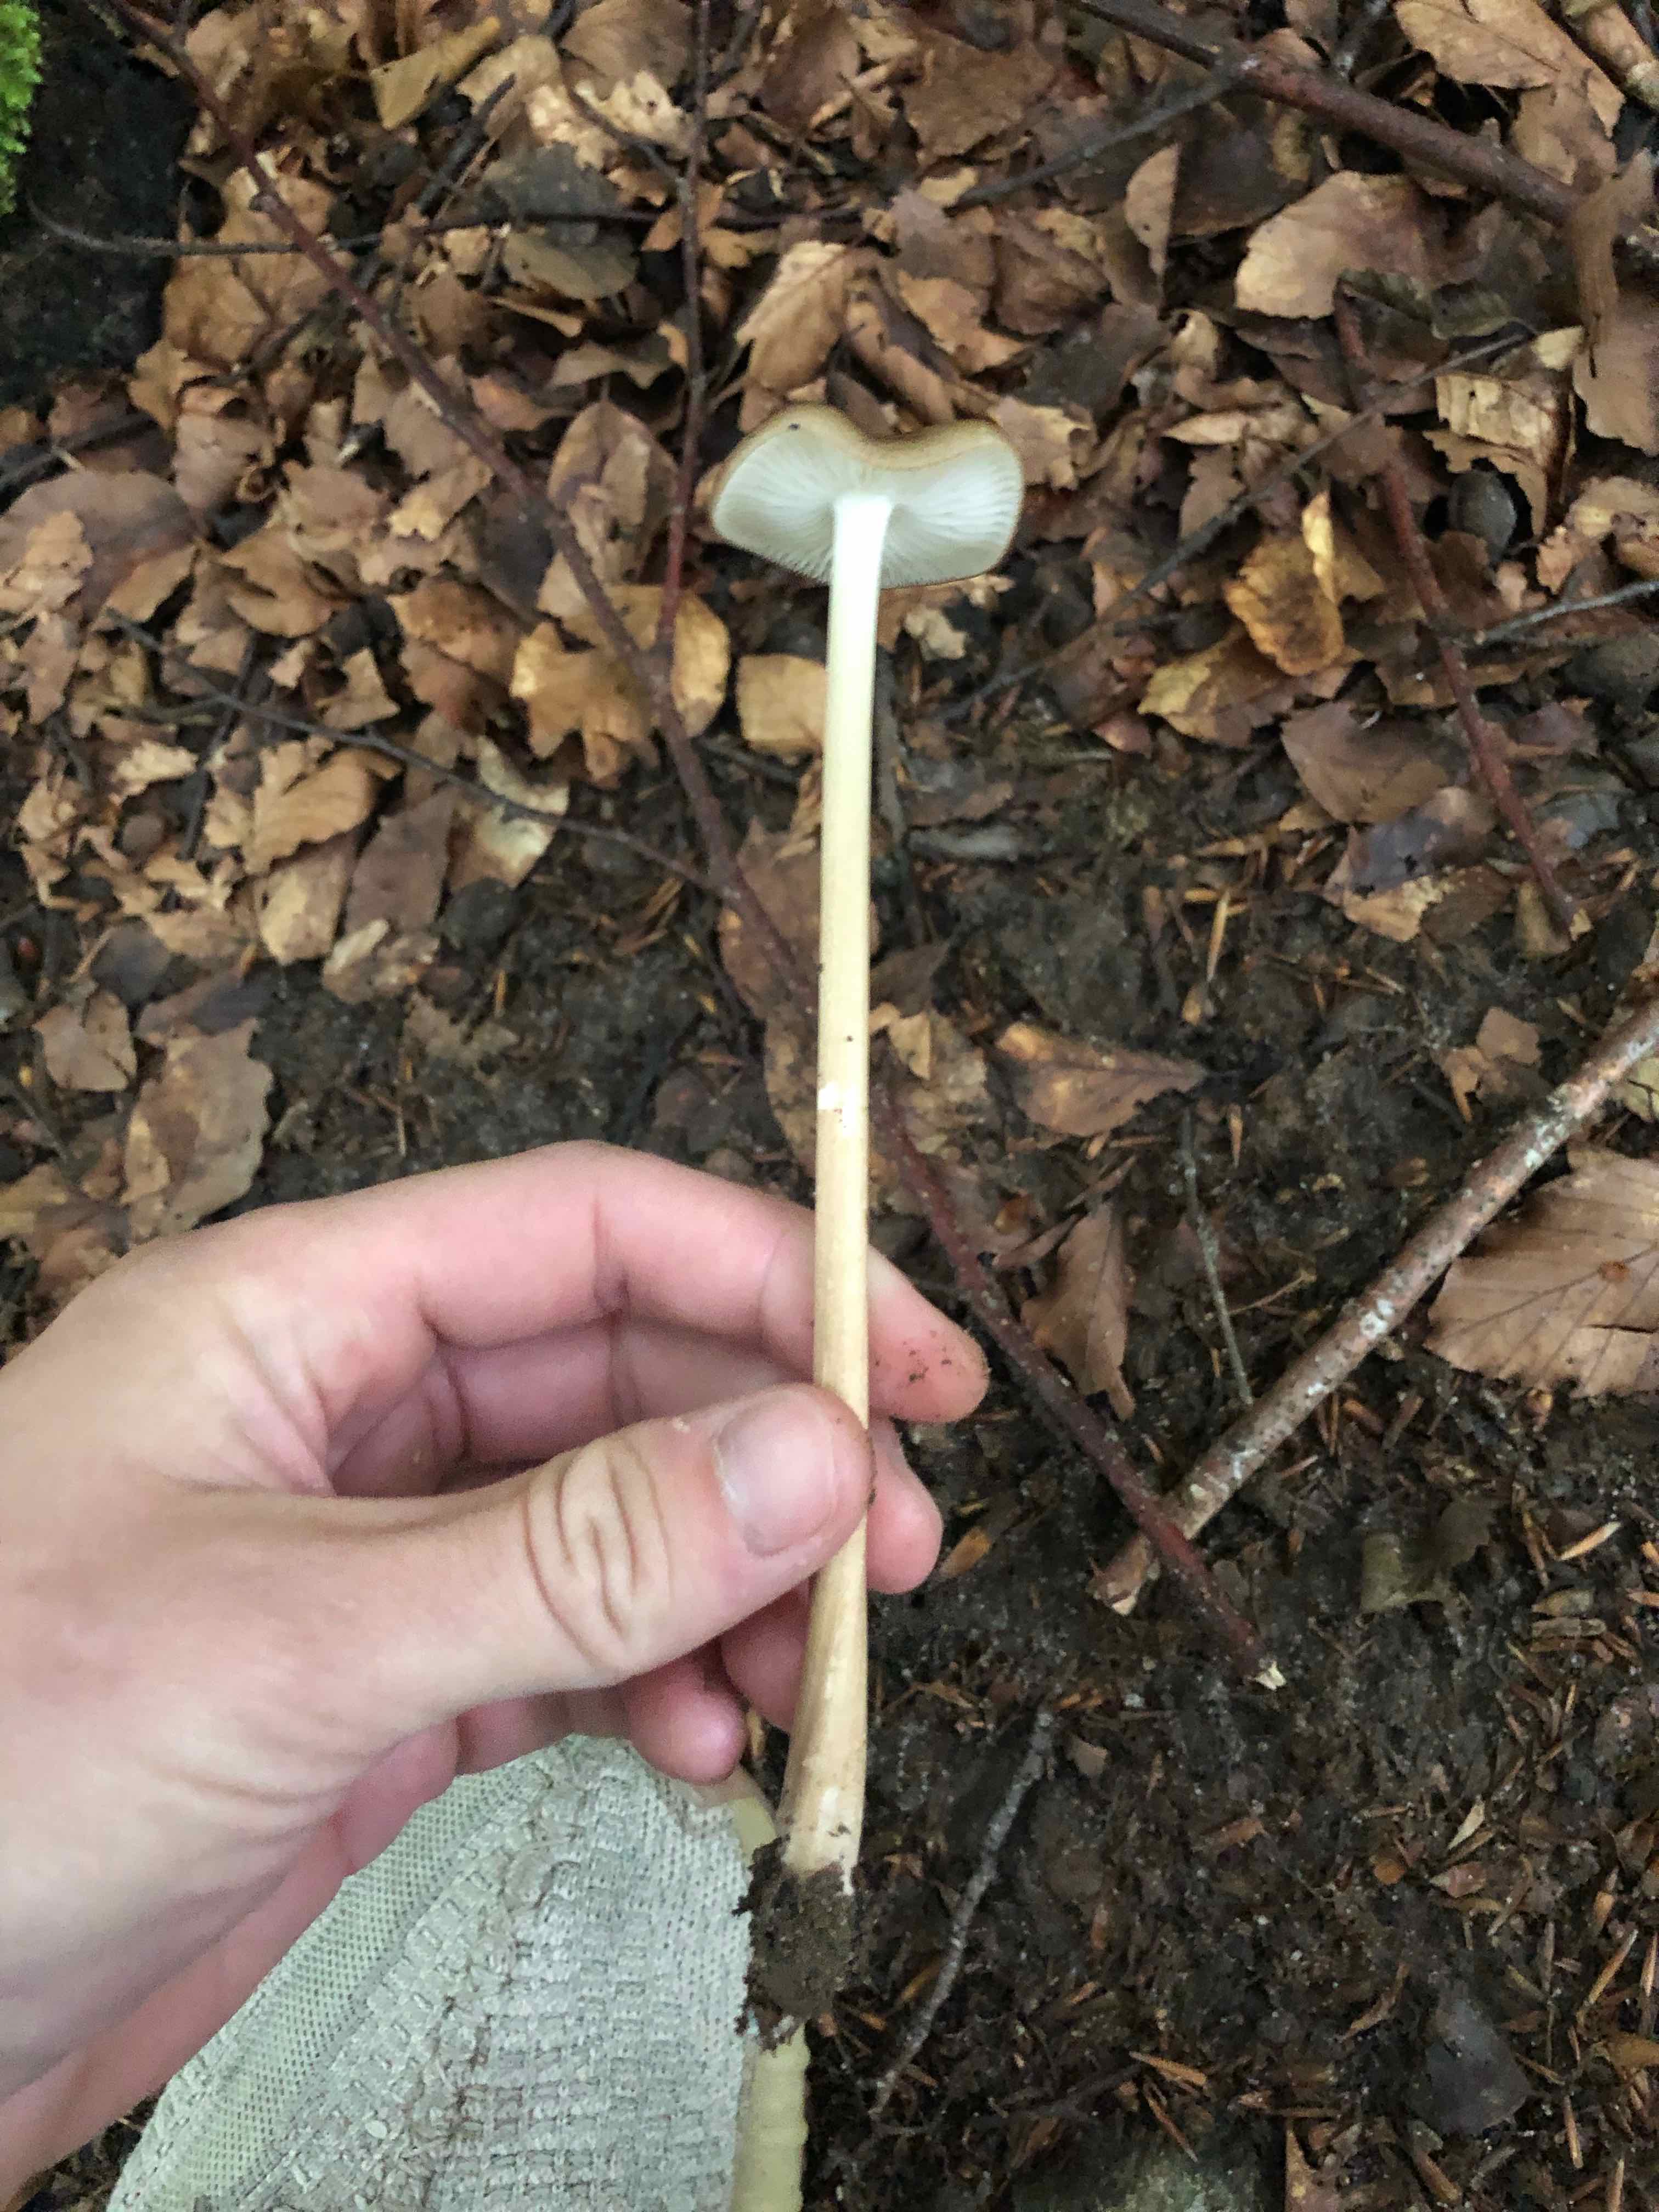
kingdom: Fungi
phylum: Basidiomycota
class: Agaricomycetes
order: Agaricales
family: Physalacriaceae
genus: Hymenopellis
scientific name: Hymenopellis radicata
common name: almindelig pælerodshat
